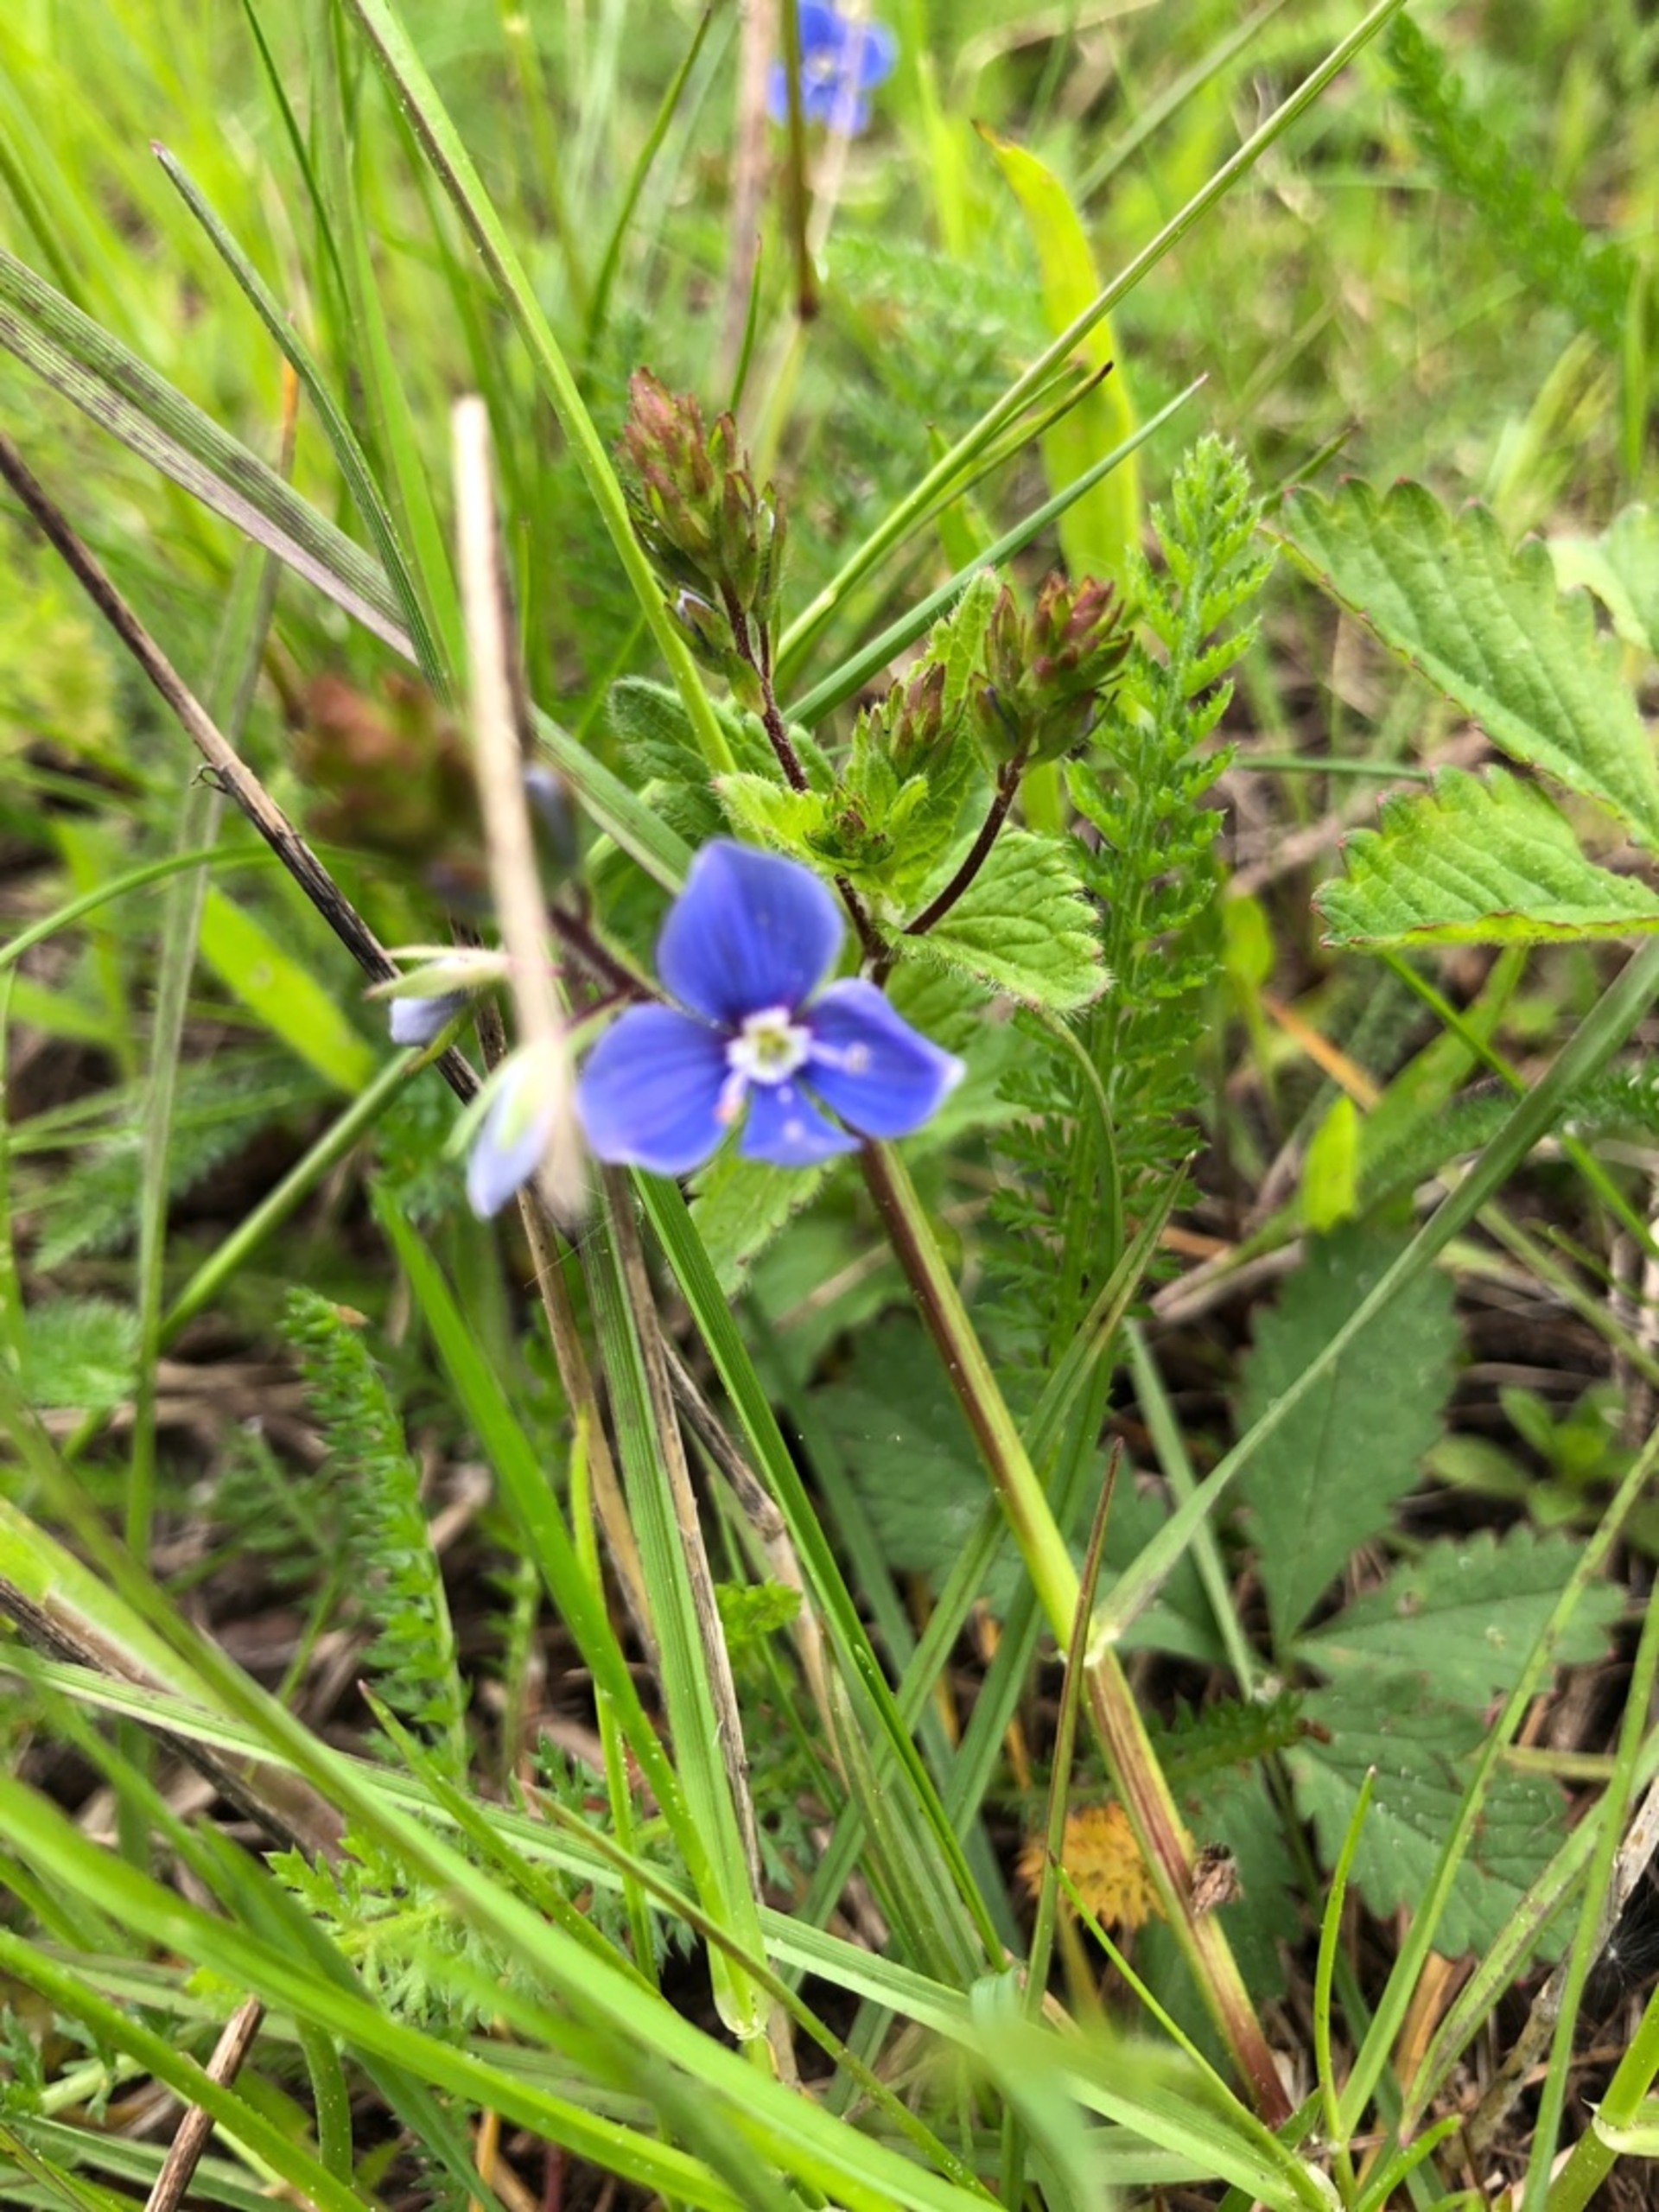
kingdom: Plantae
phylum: Tracheophyta
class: Magnoliopsida
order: Lamiales
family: Plantaginaceae
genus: Veronica
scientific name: Veronica chamaedrys
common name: Tveskægget ærenpris
